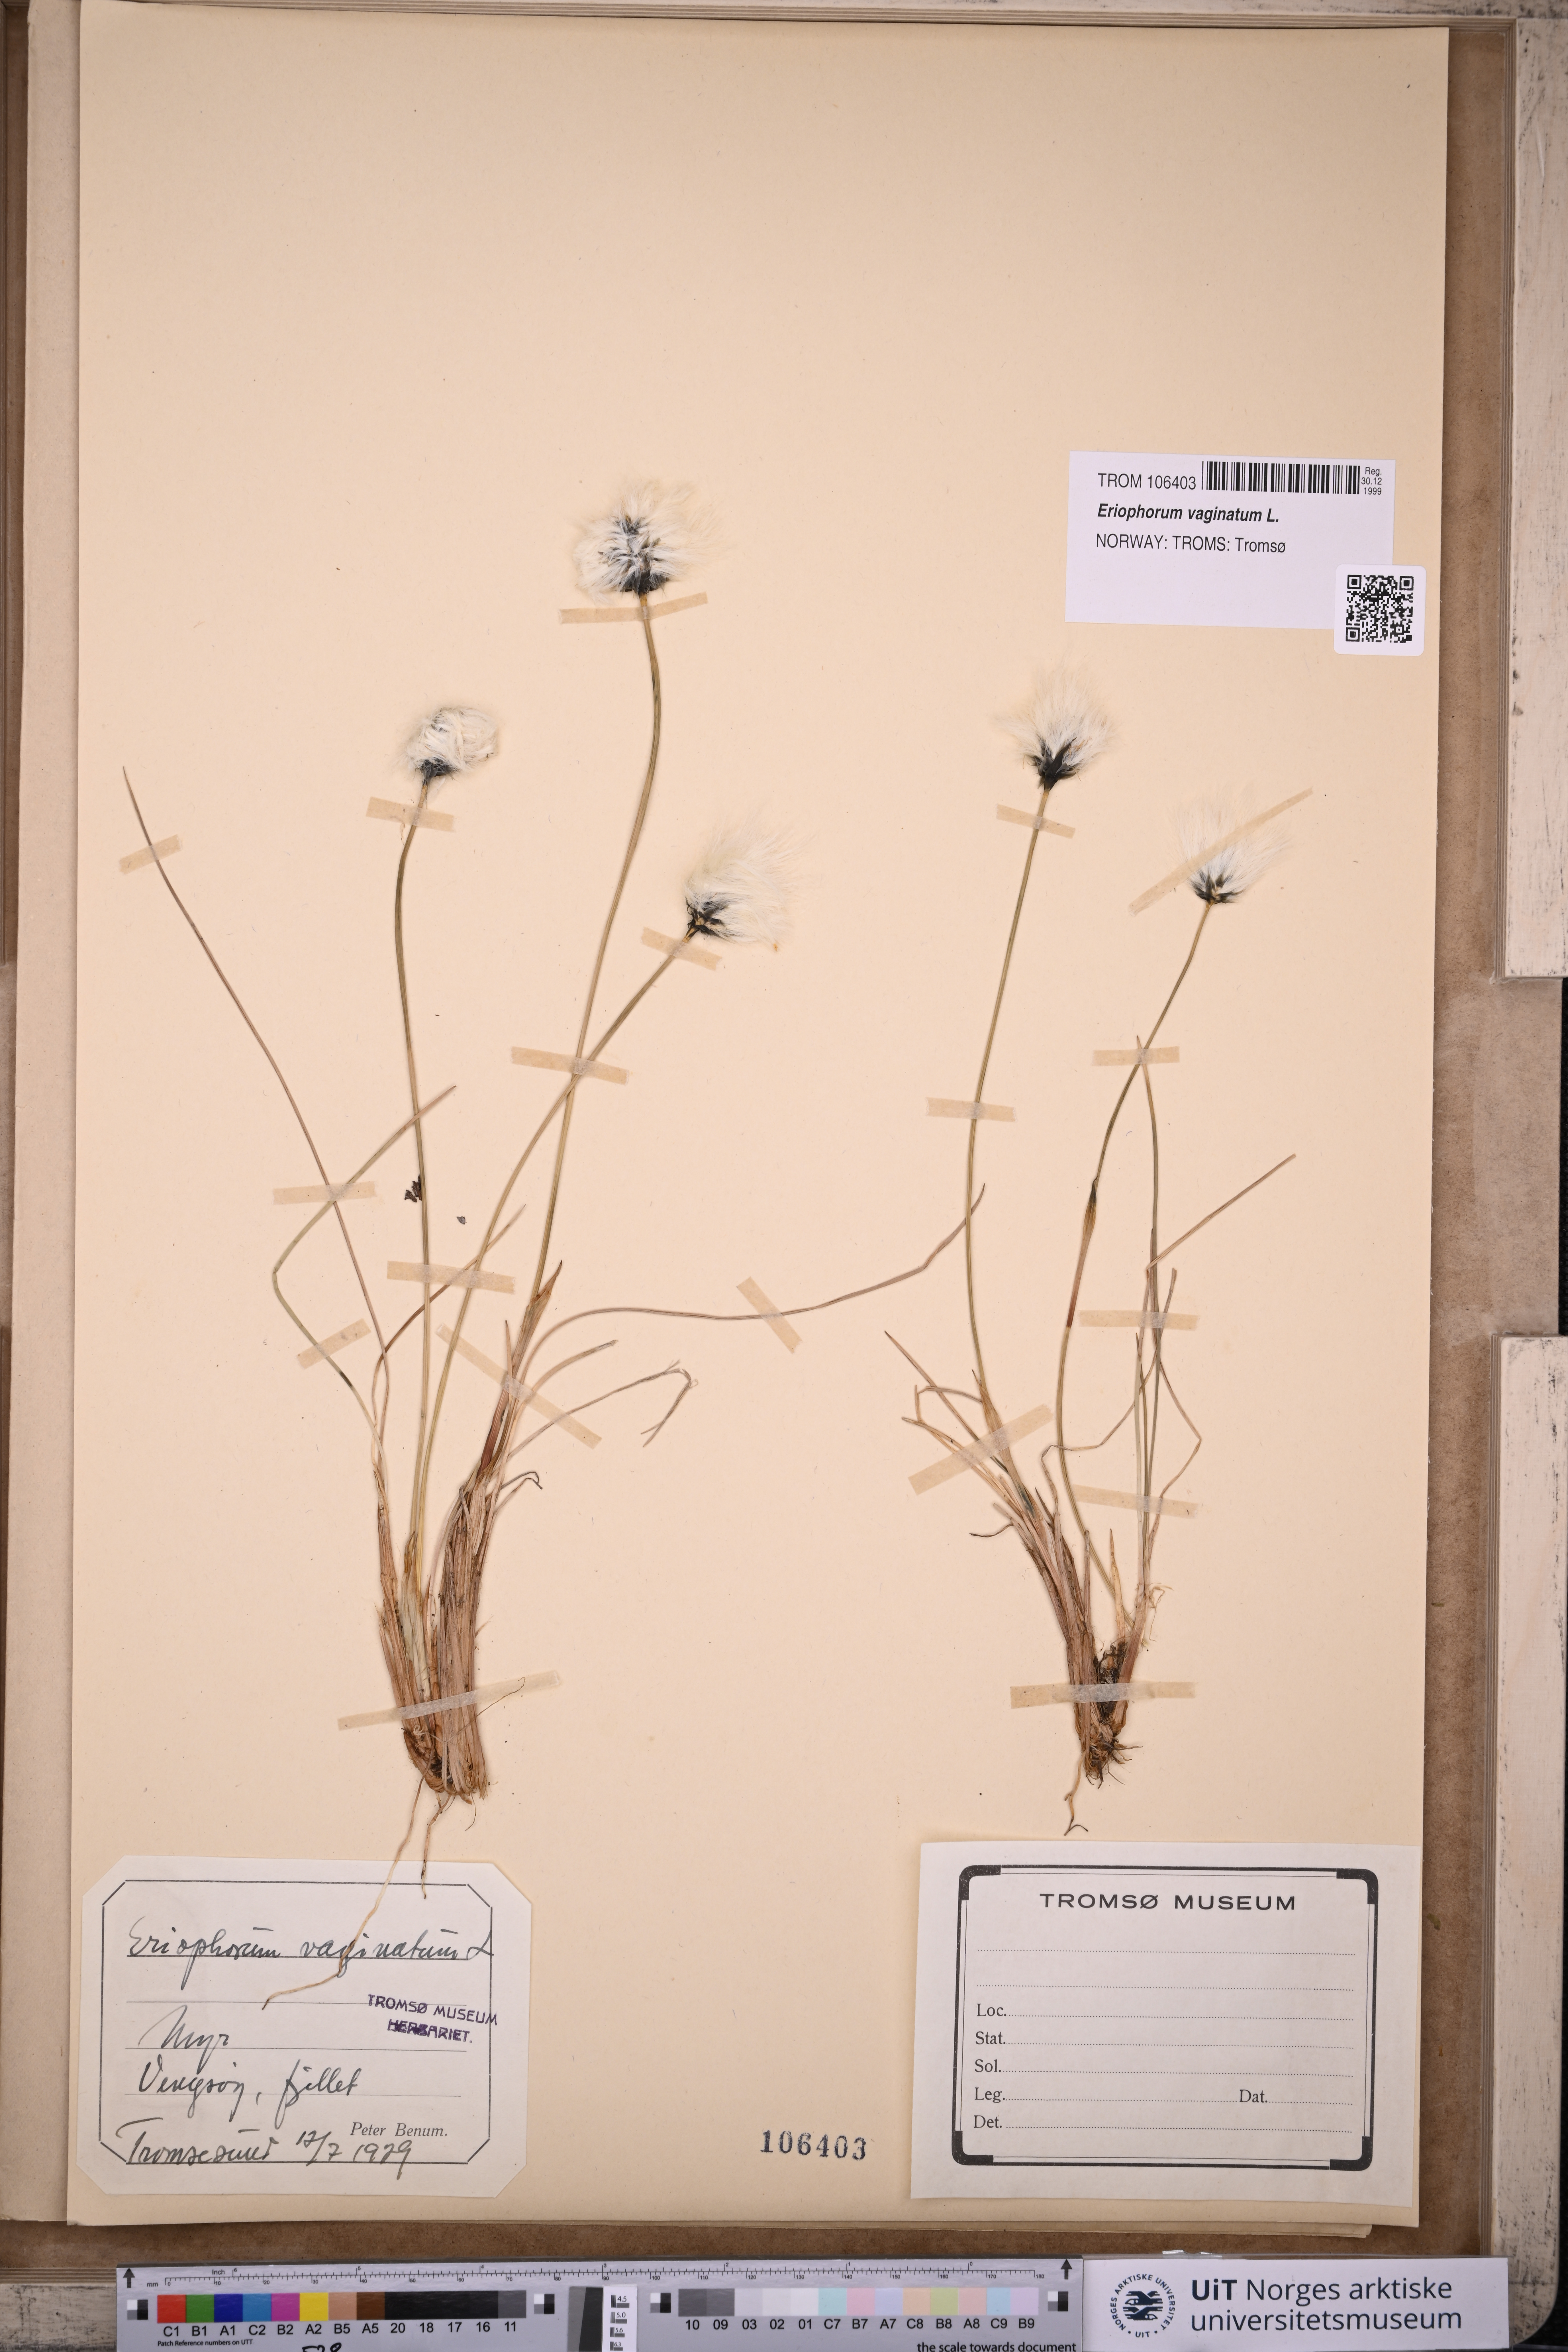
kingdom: Plantae
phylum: Tracheophyta
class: Liliopsida
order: Poales
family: Cyperaceae
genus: Eriophorum
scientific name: Eriophorum vaginatum
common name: Hare's-tail cottongrass
